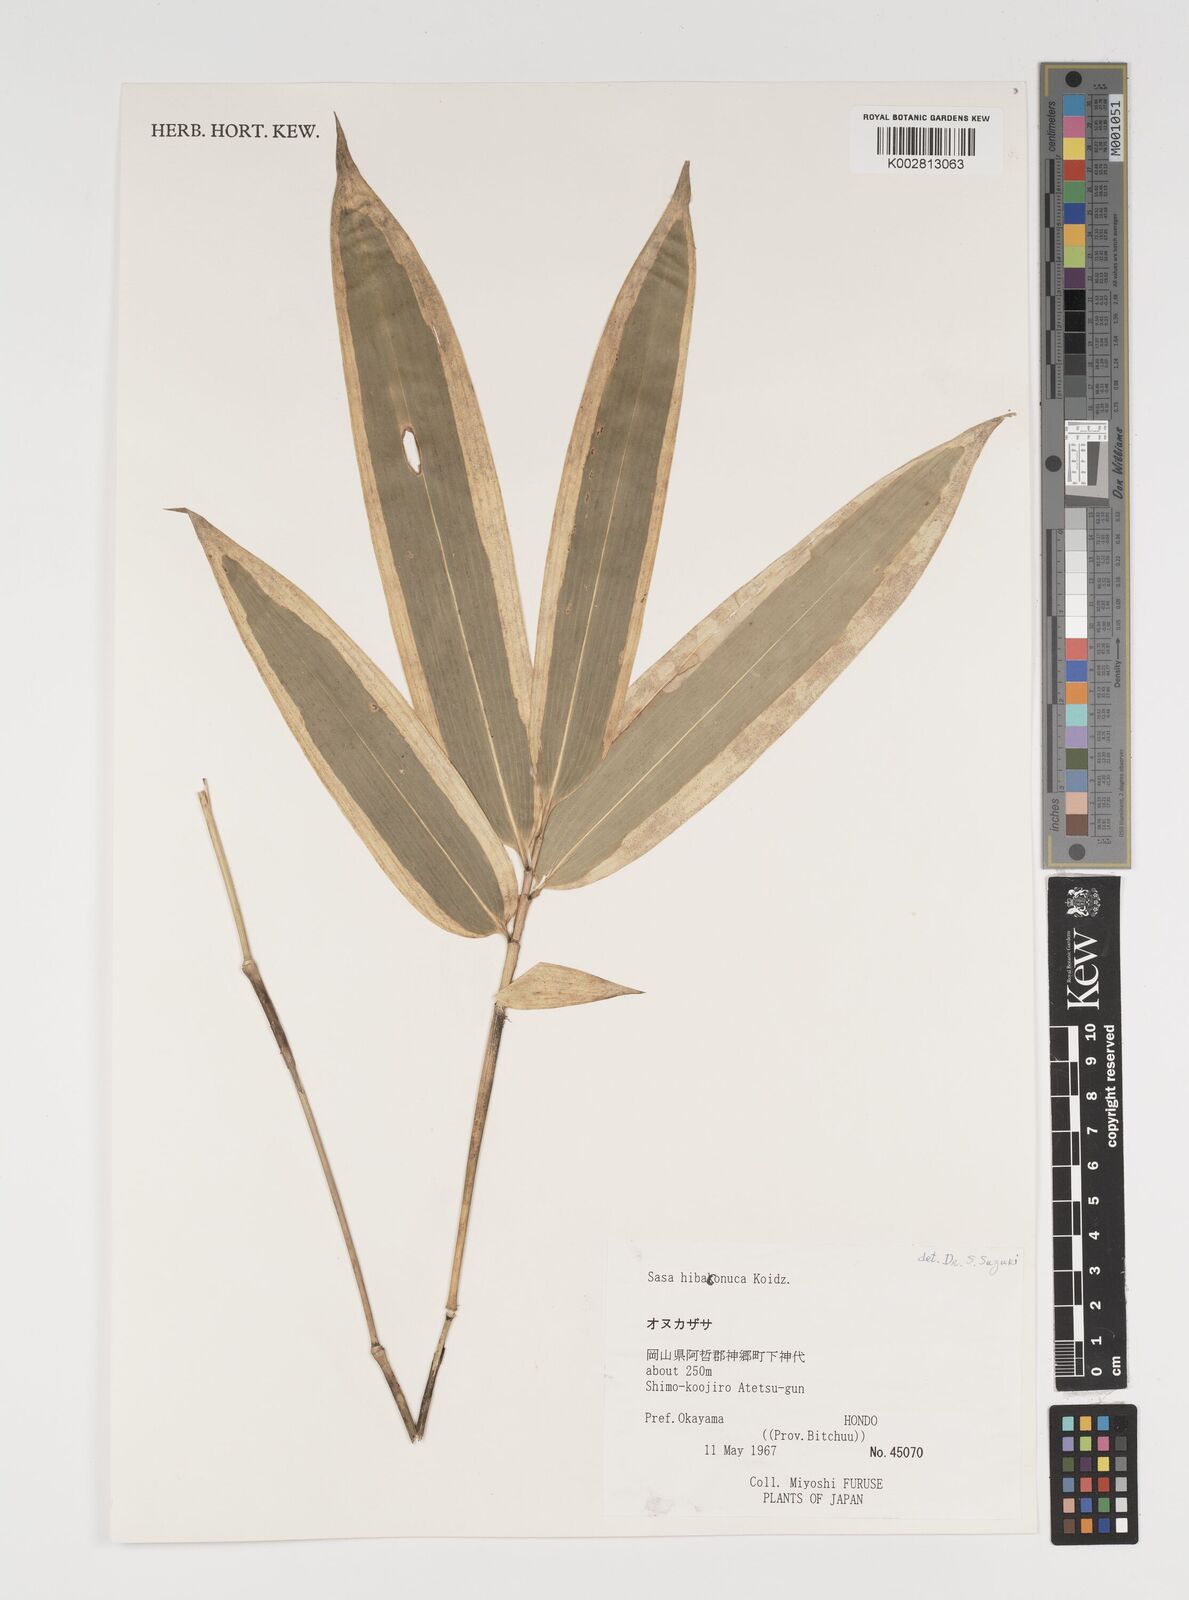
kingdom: Plantae
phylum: Tracheophyta
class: Liliopsida
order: Poales
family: Poaceae
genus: Sasa
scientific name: Sasa hibaconuca
